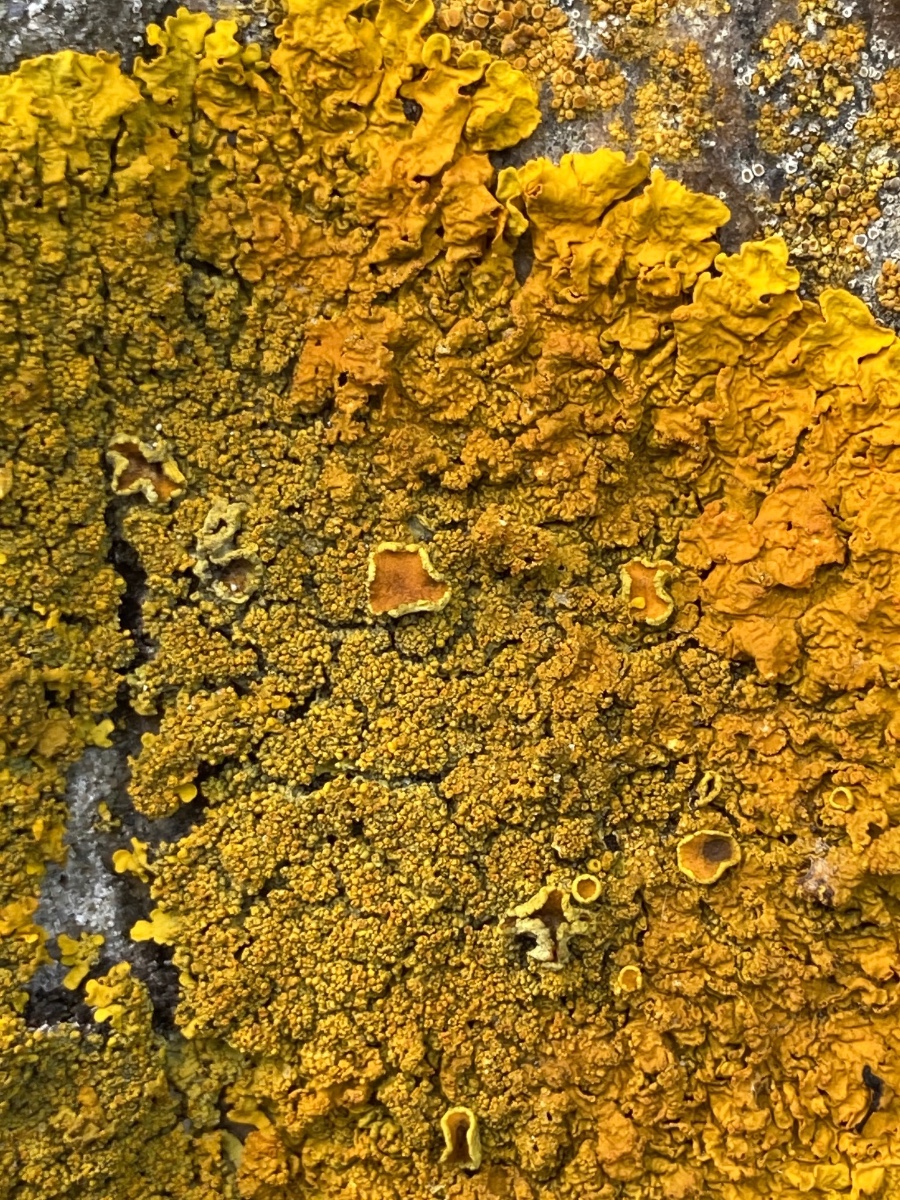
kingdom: Fungi
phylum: Ascomycota
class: Lecanoromycetes
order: Teloschistales
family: Teloschistaceae
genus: Xanthoria
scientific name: Xanthoria calcicola
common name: vortet væggelav
